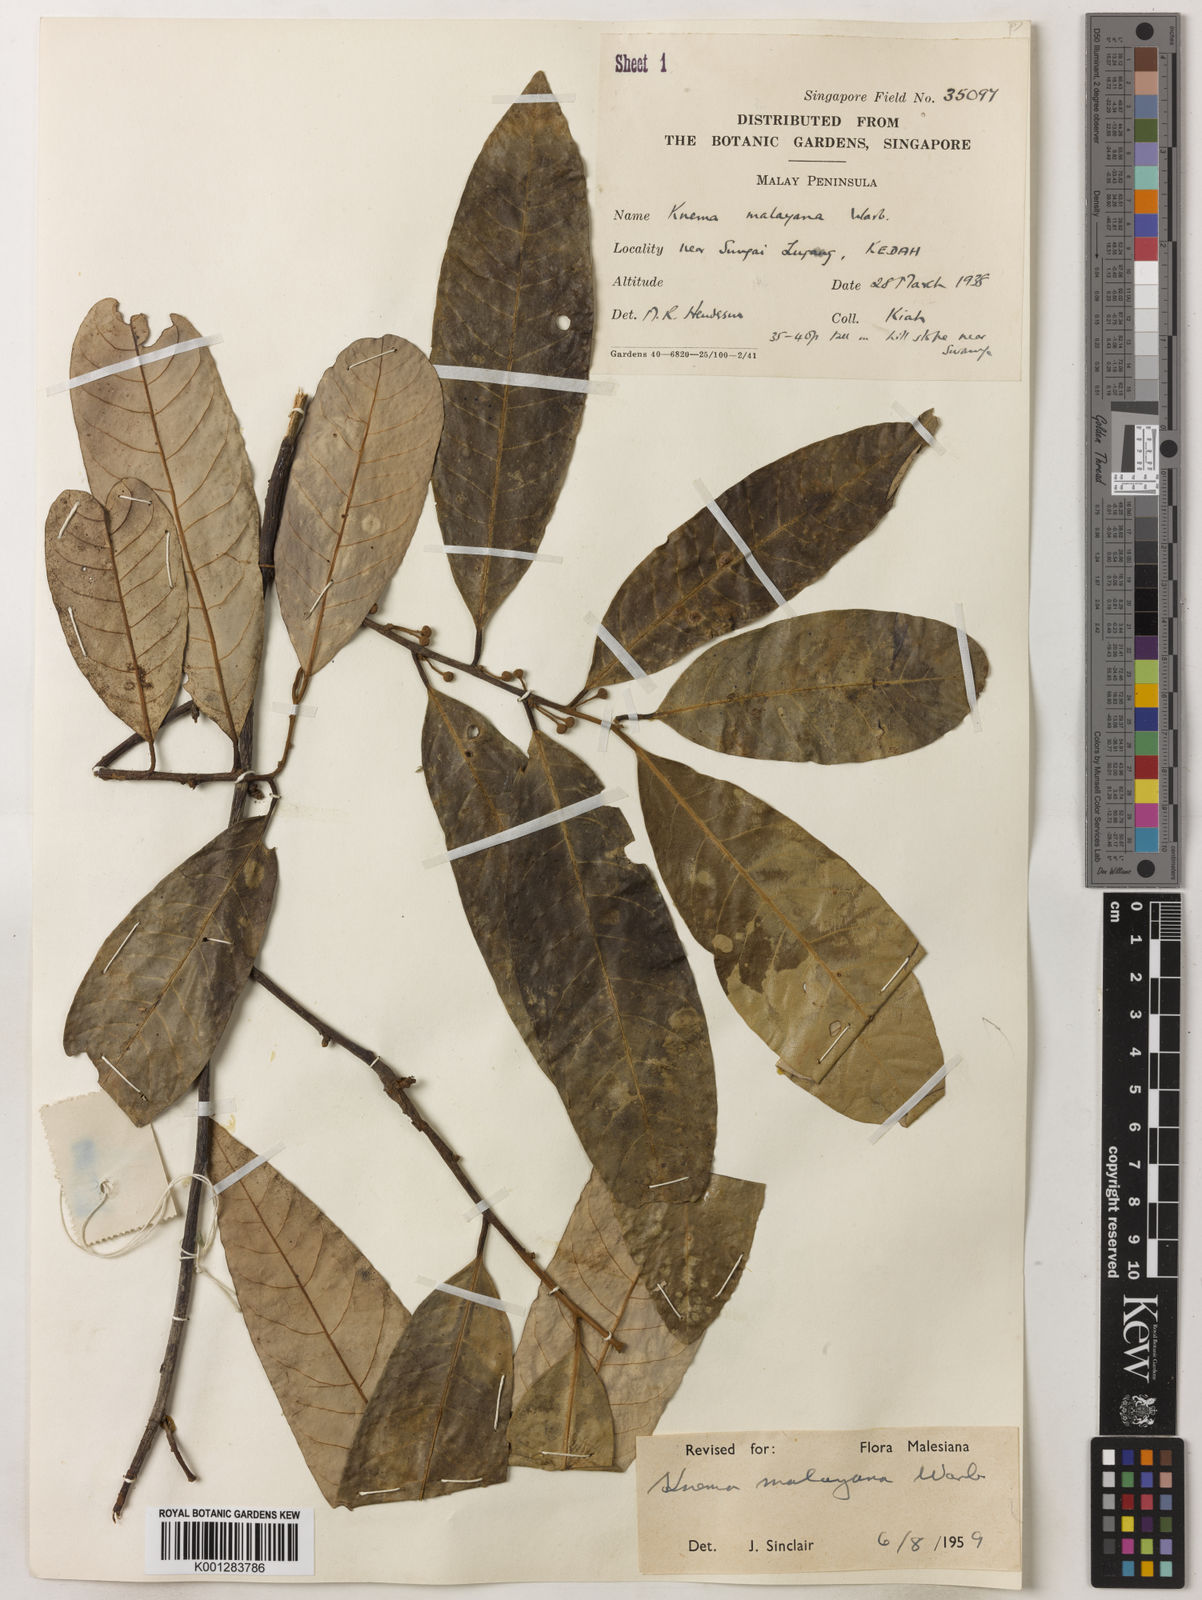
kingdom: Plantae
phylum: Tracheophyta
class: Magnoliopsida
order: Magnoliales
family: Myristicaceae
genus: Knema
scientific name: Knema malayana
